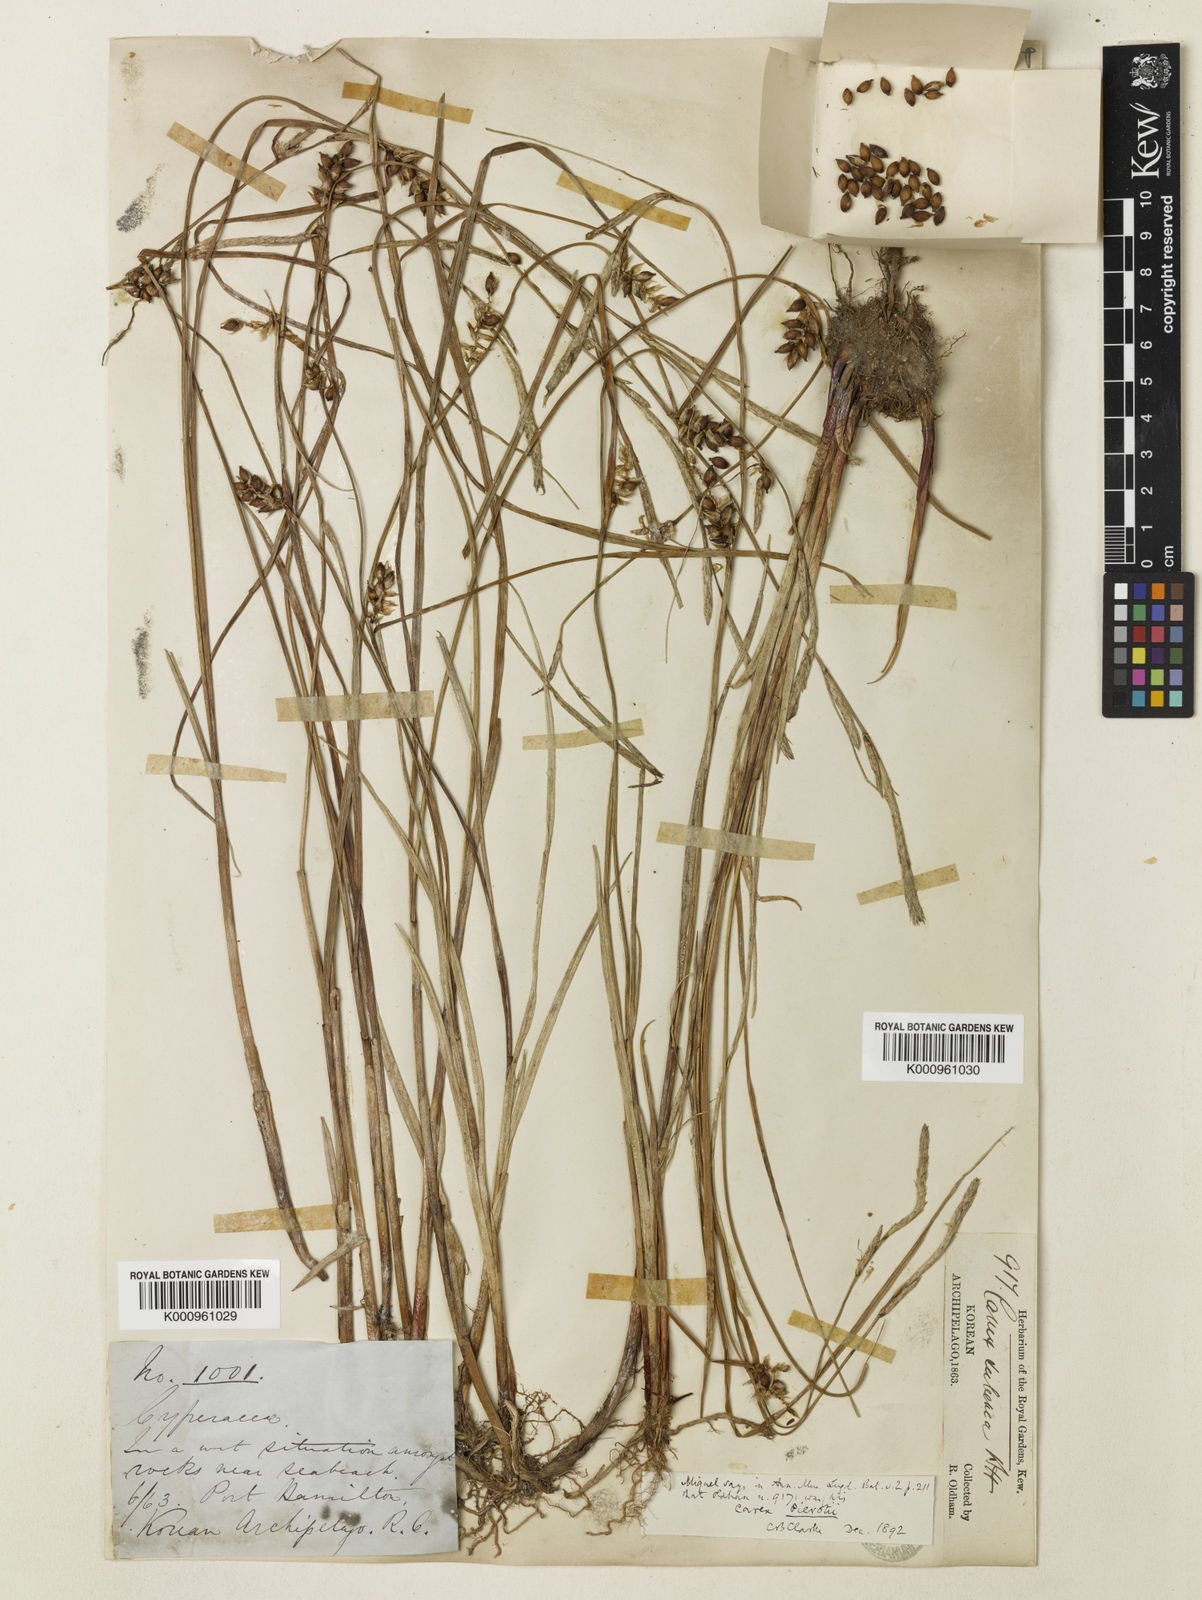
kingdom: Plantae
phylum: Tracheophyta
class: Liliopsida
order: Poales
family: Cyperaceae
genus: Carex
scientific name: Carex scabrifolia
